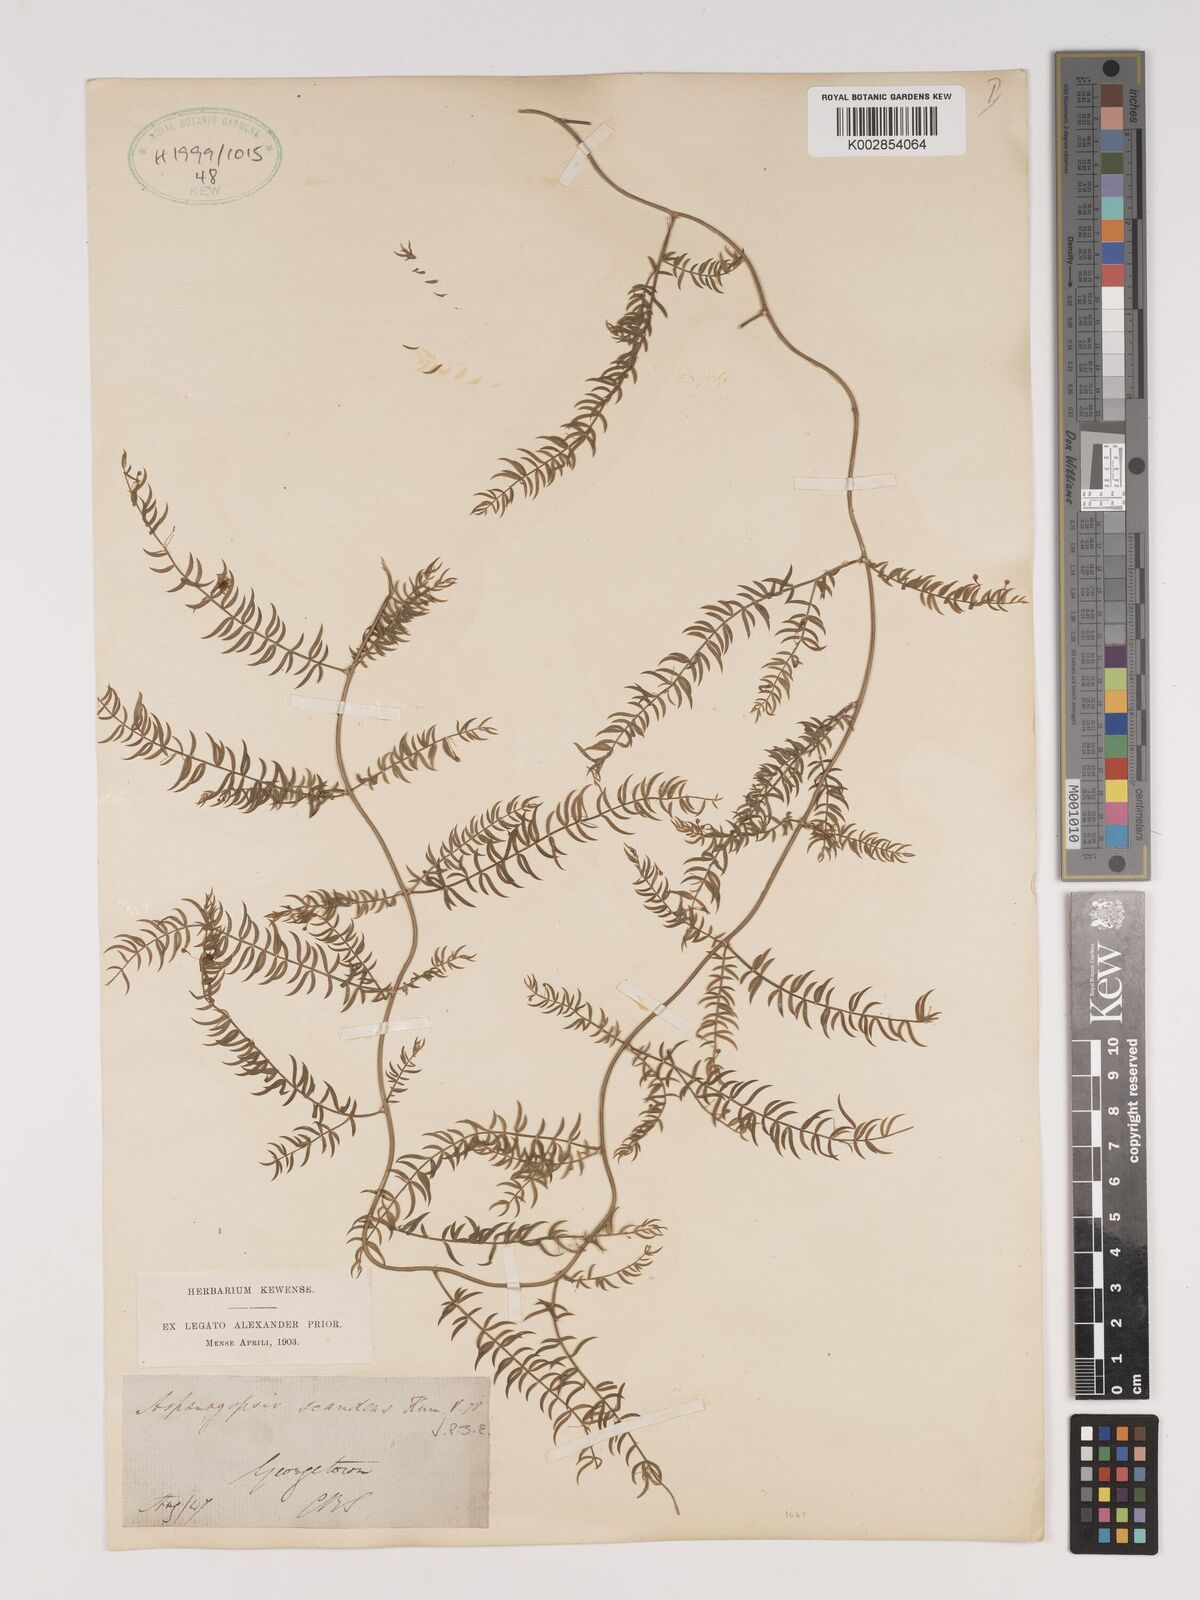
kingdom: Plantae
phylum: Tracheophyta
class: Liliopsida
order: Asparagales
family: Asparagaceae
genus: Asparagus
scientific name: Asparagus verticillatus
